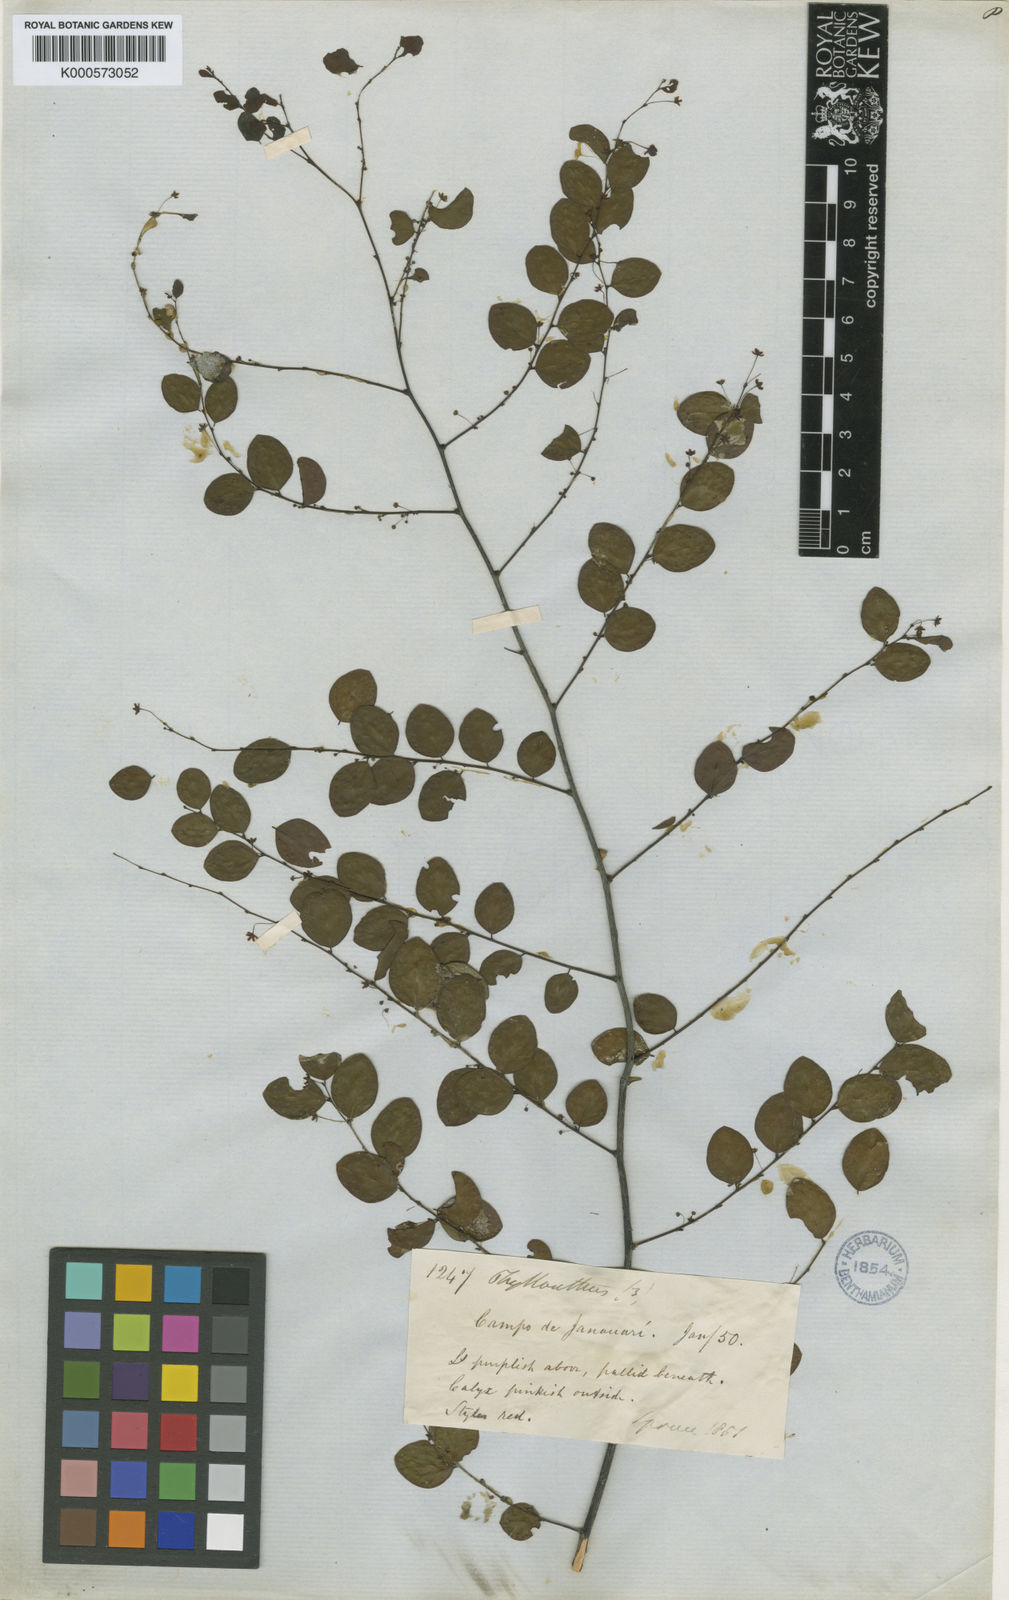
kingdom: Plantae
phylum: Tracheophyta
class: Magnoliopsida
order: Malpighiales
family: Phyllanthaceae
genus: Phyllanthus
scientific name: Phyllanthus
